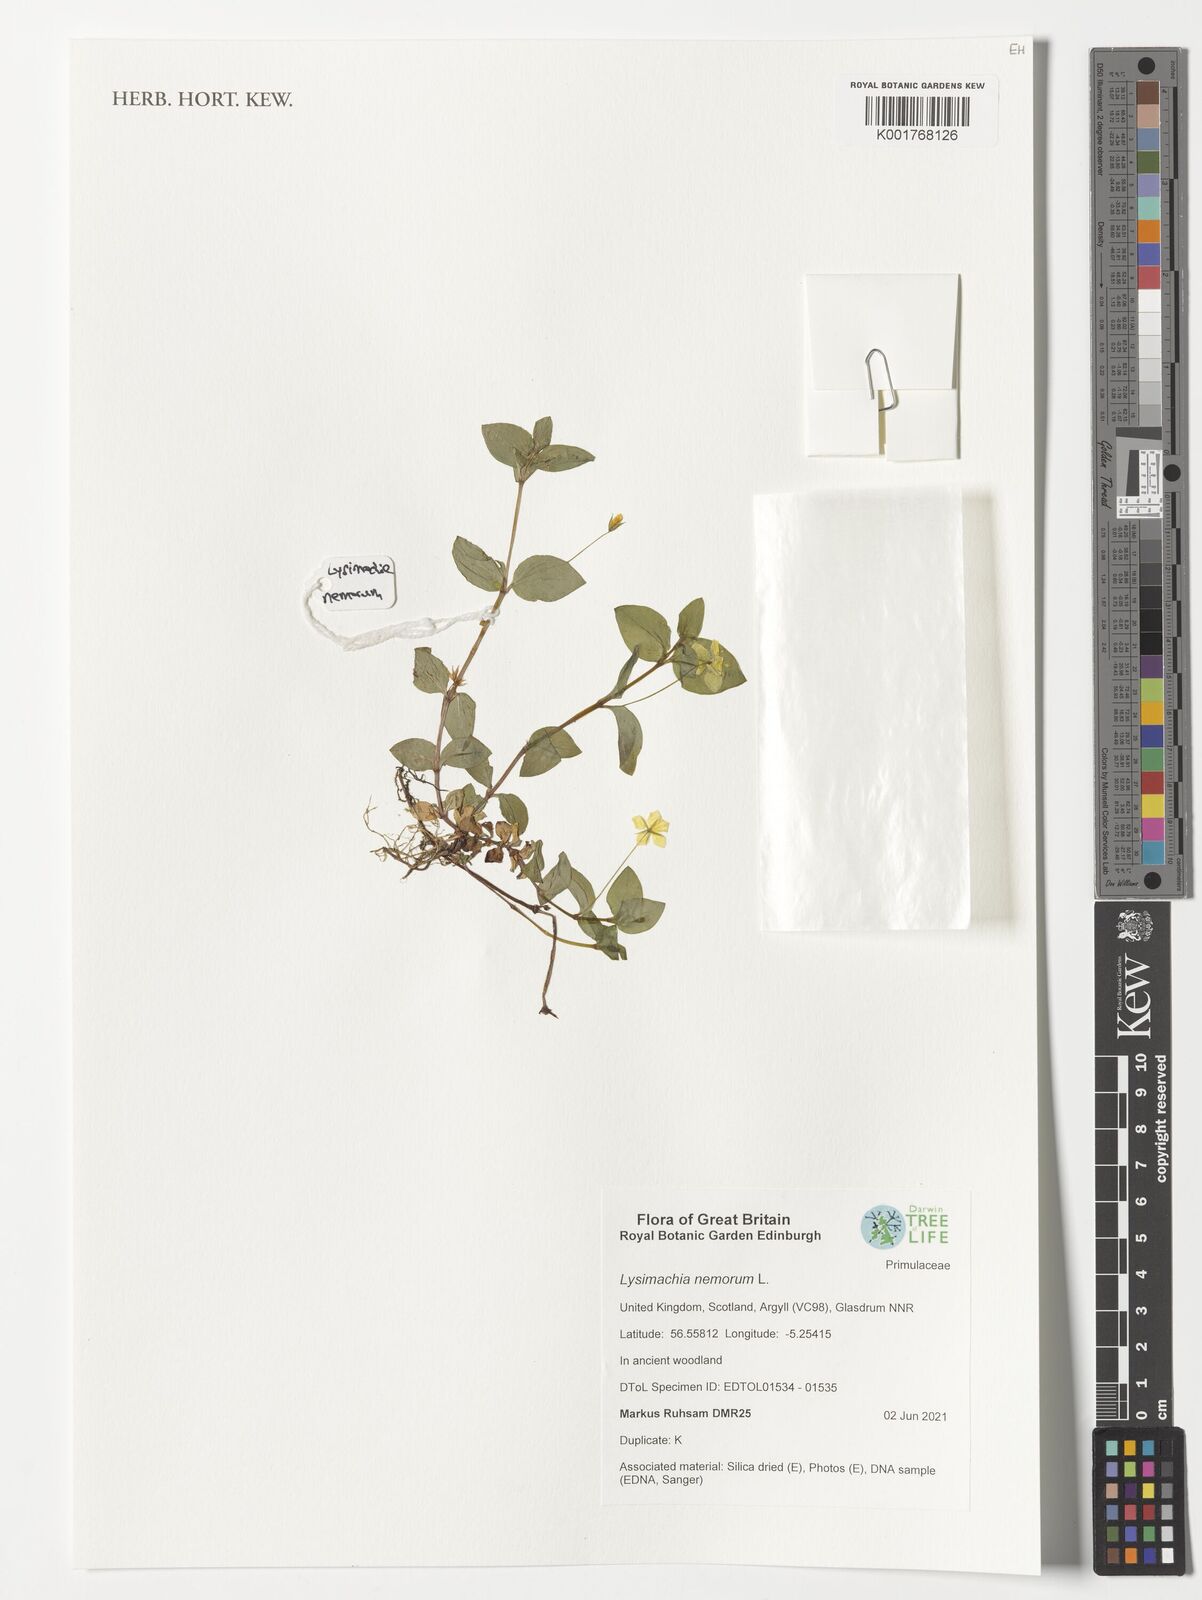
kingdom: Plantae
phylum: Tracheophyta
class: Magnoliopsida
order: Ericales
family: Primulaceae
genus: Lysimachia
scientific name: Lysimachia nemorum
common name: Yellow pimpernel
